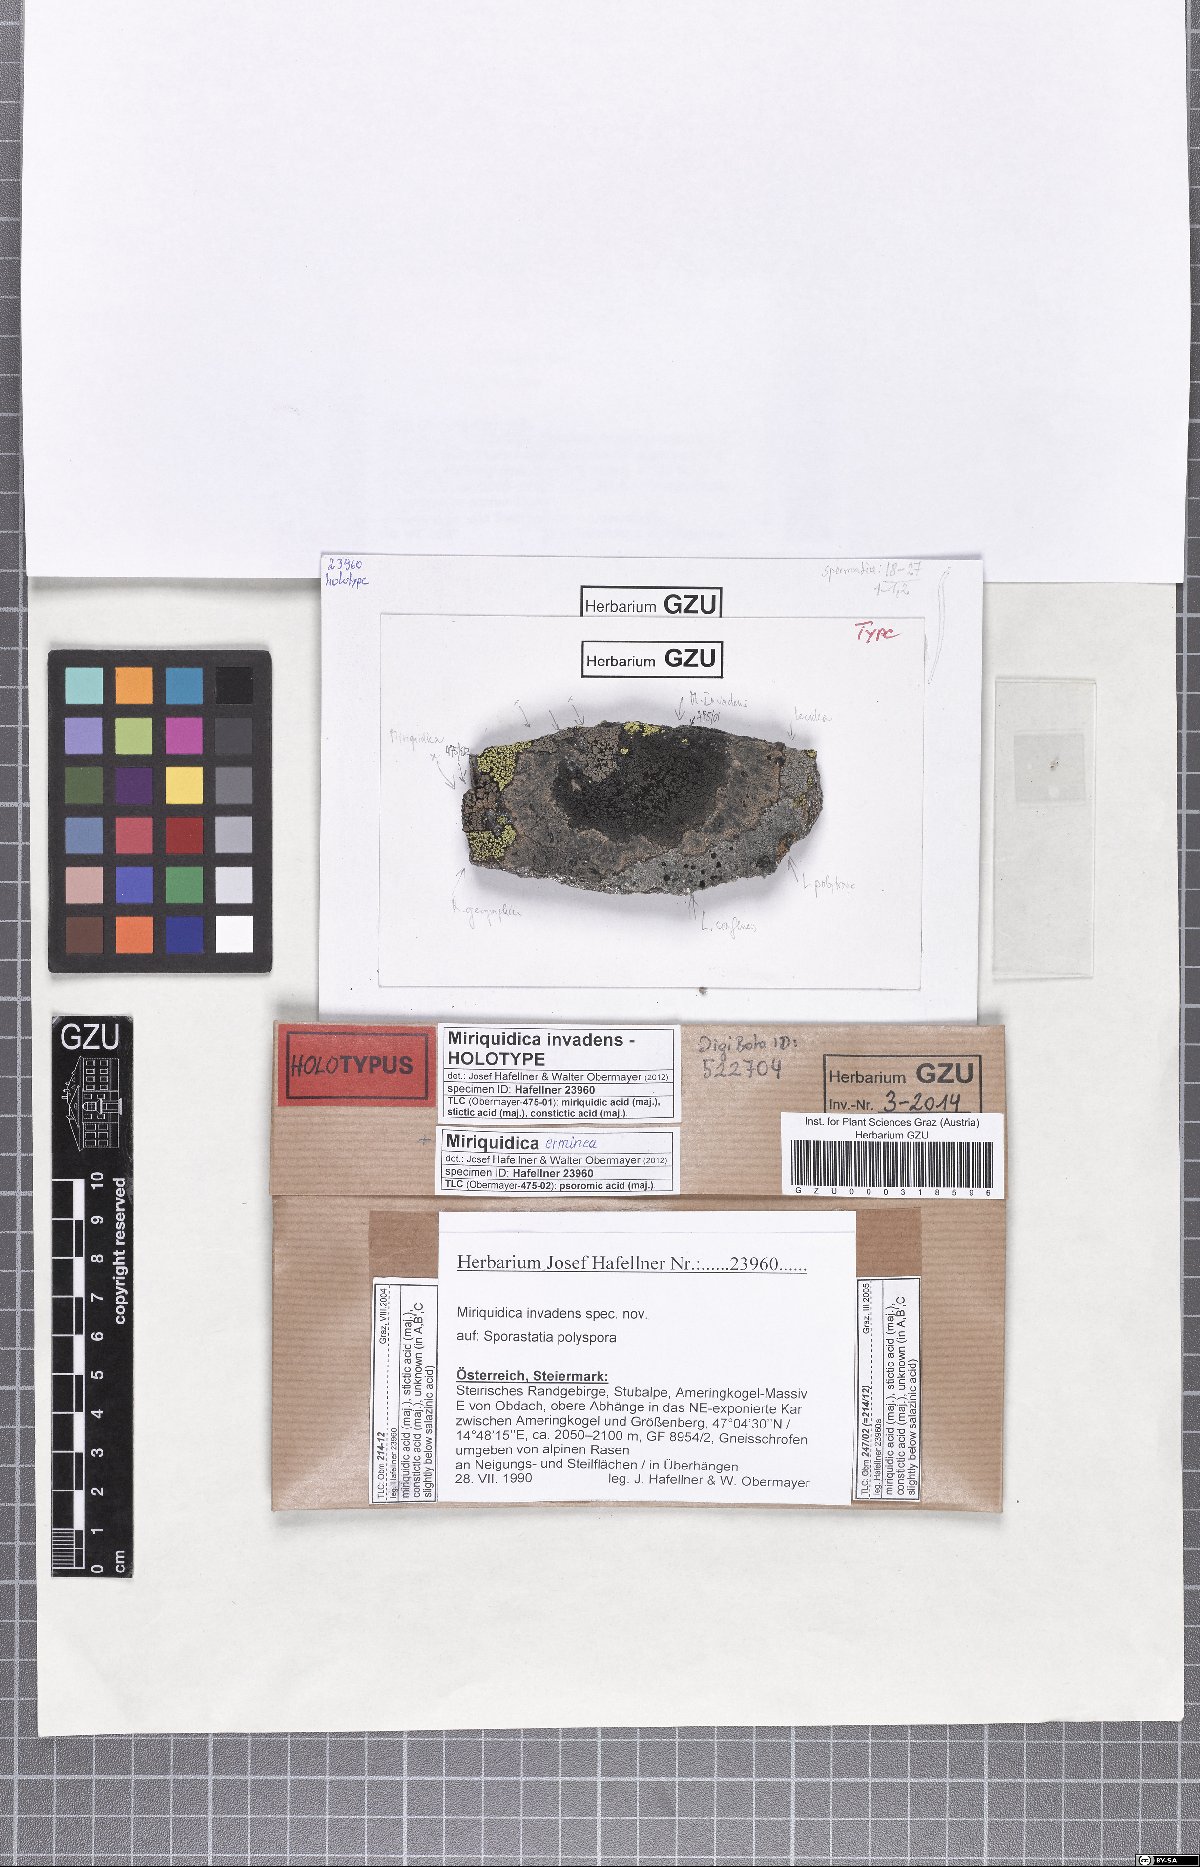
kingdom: Fungi
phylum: Ascomycota
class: Lecanoromycetes
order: Lecanorales
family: Lecanoraceae
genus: Miriquidica
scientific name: Miriquidica invadens
